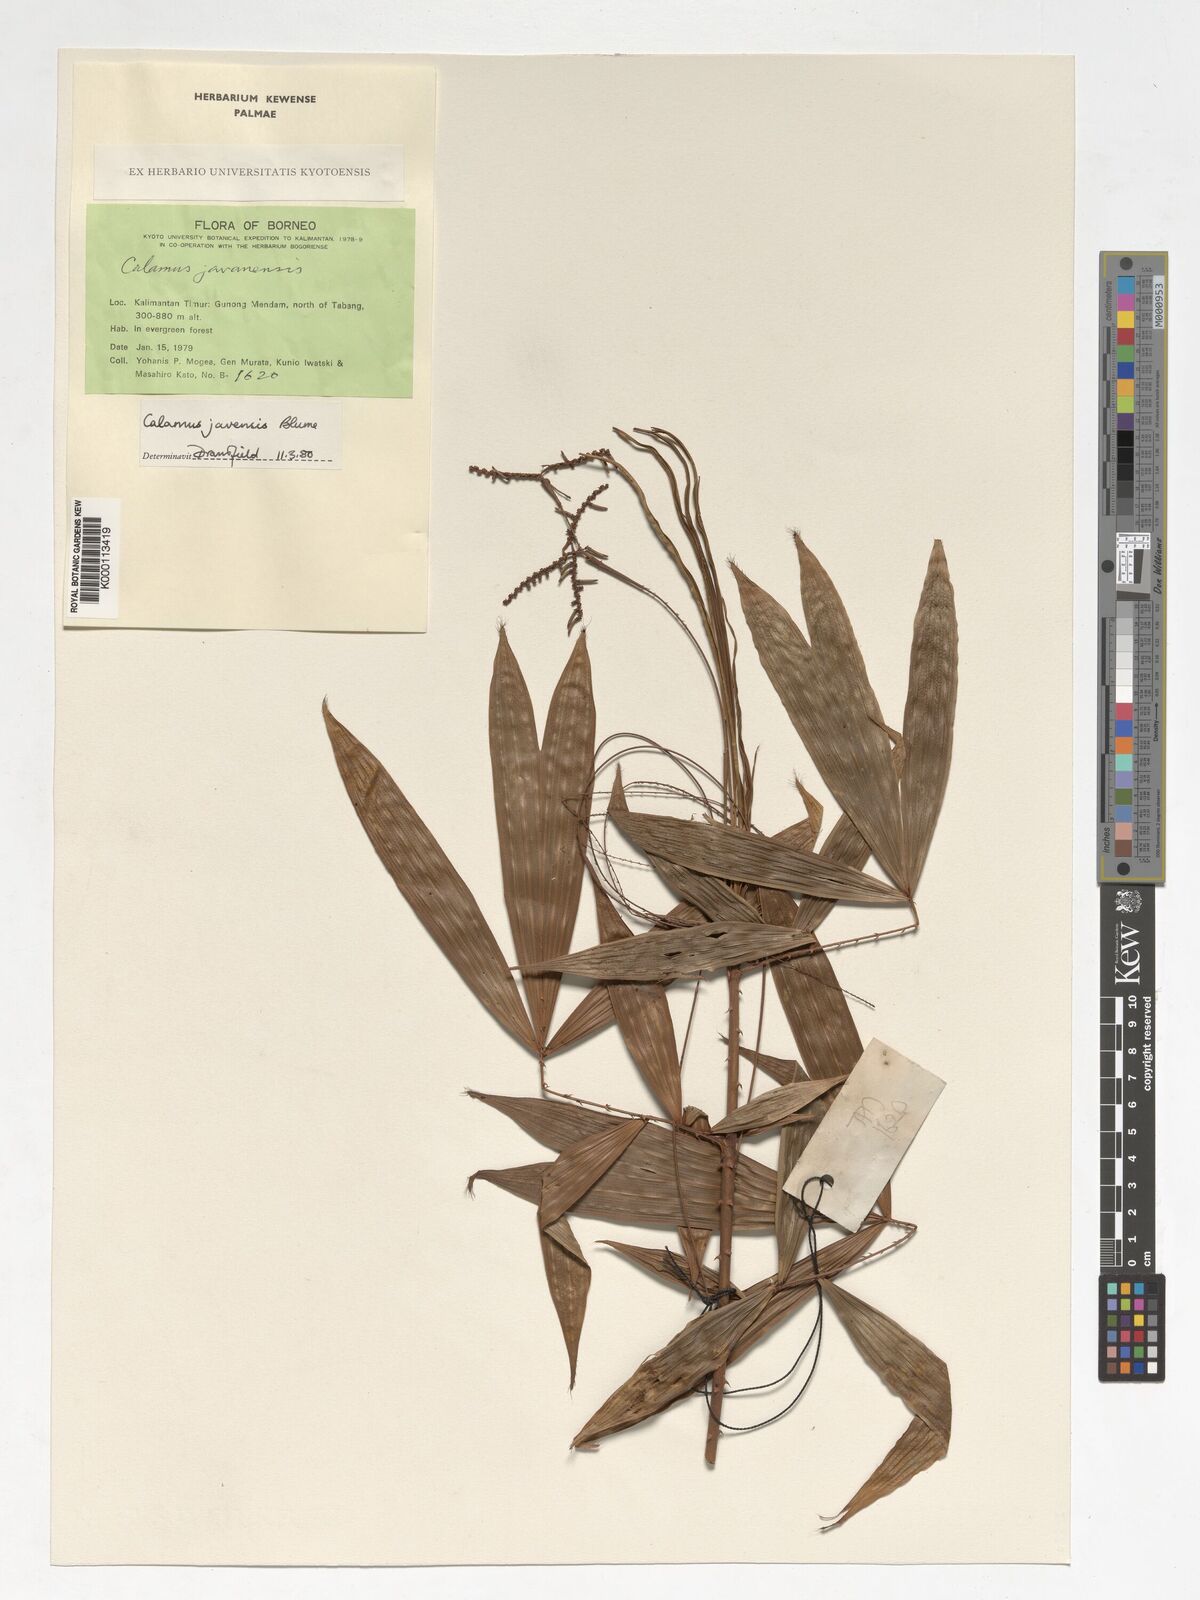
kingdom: Plantae
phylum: Tracheophyta
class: Liliopsida
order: Arecales
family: Arecaceae
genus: Calamus
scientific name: Calamus javensis
